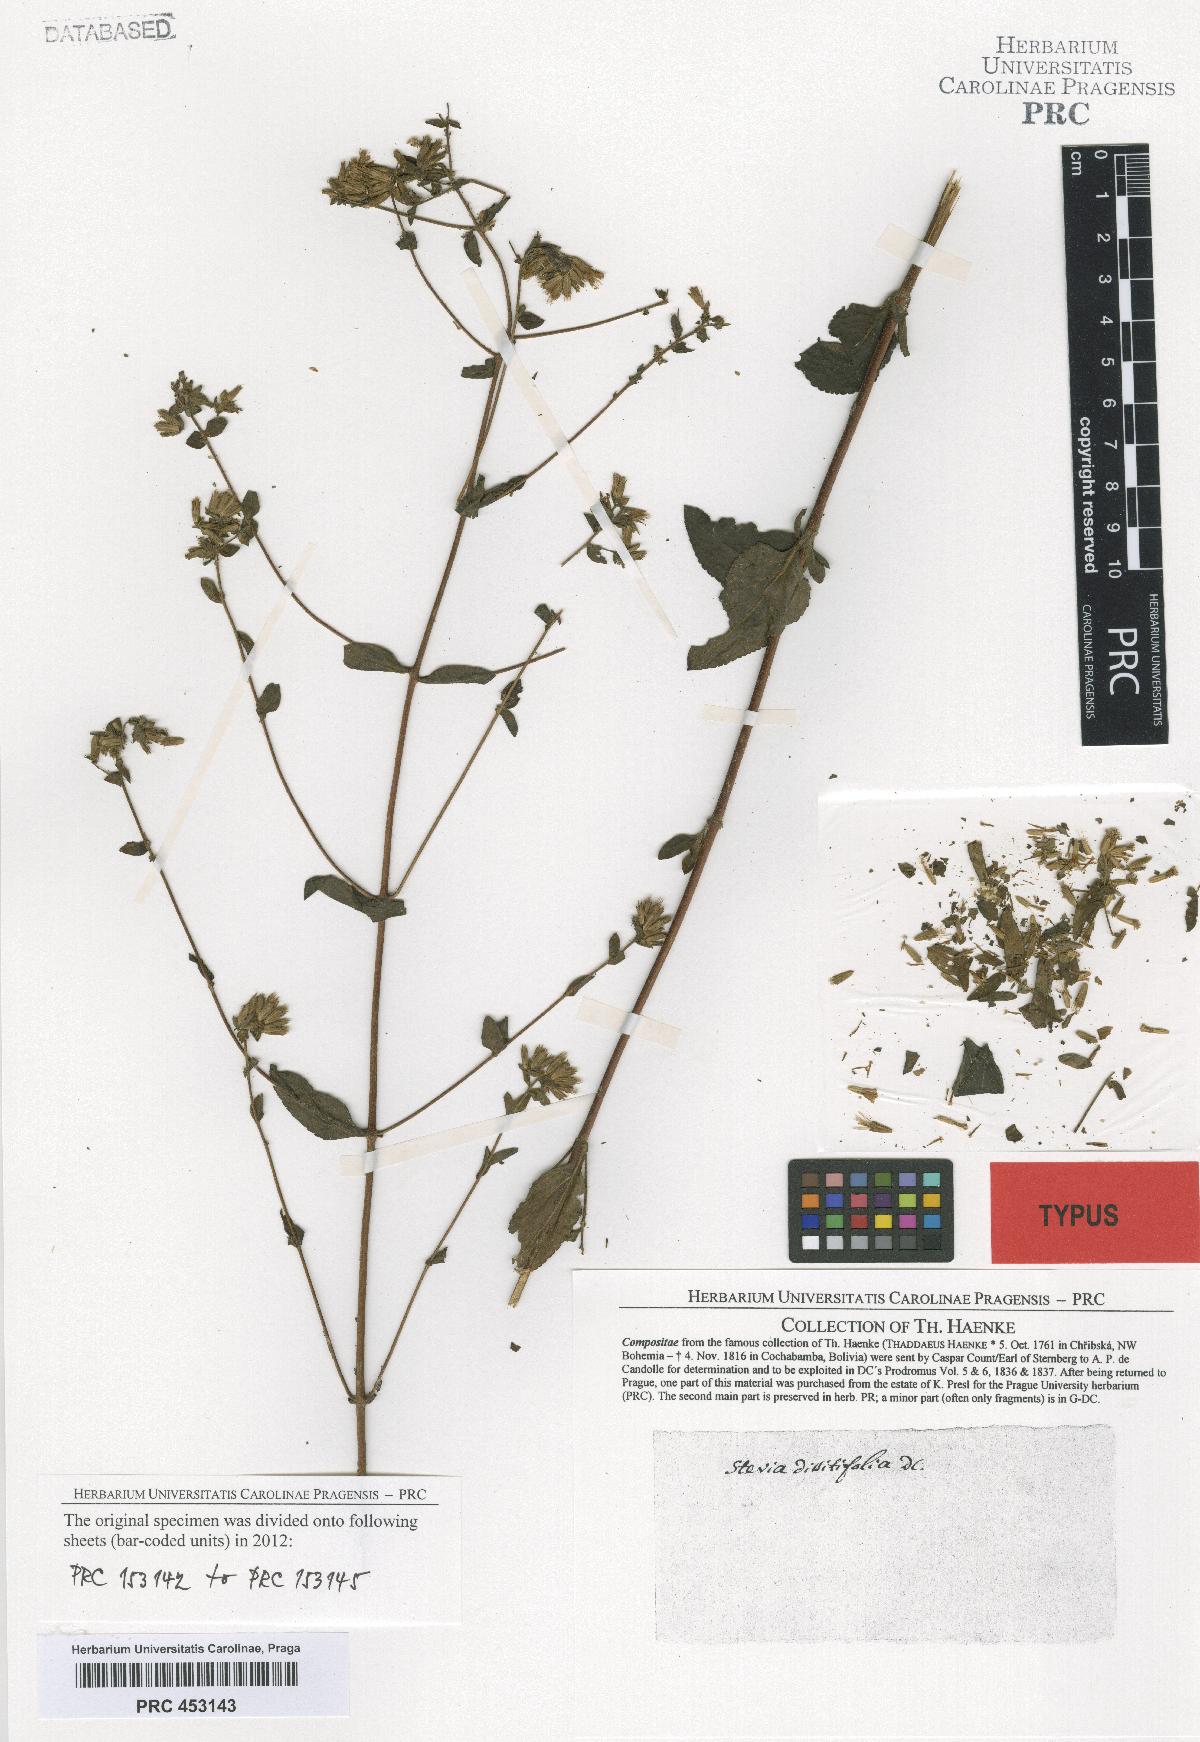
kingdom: Plantae
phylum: Tracheophyta
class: Magnoliopsida
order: Asterales
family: Asteraceae
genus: Stevia
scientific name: Stevia origanoides
